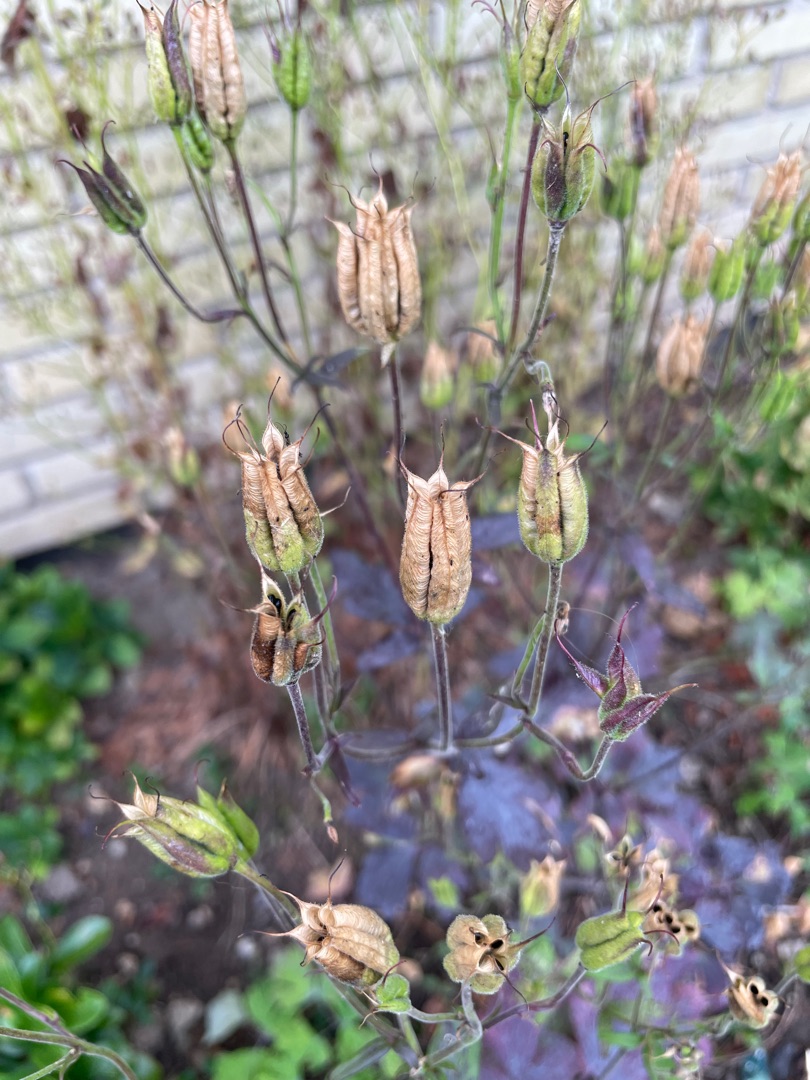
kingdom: Plantae
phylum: Tracheophyta
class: Magnoliopsida
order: Ranunculales
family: Ranunculaceae
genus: Aquilegia
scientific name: Aquilegia vulgaris
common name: Akeleje
